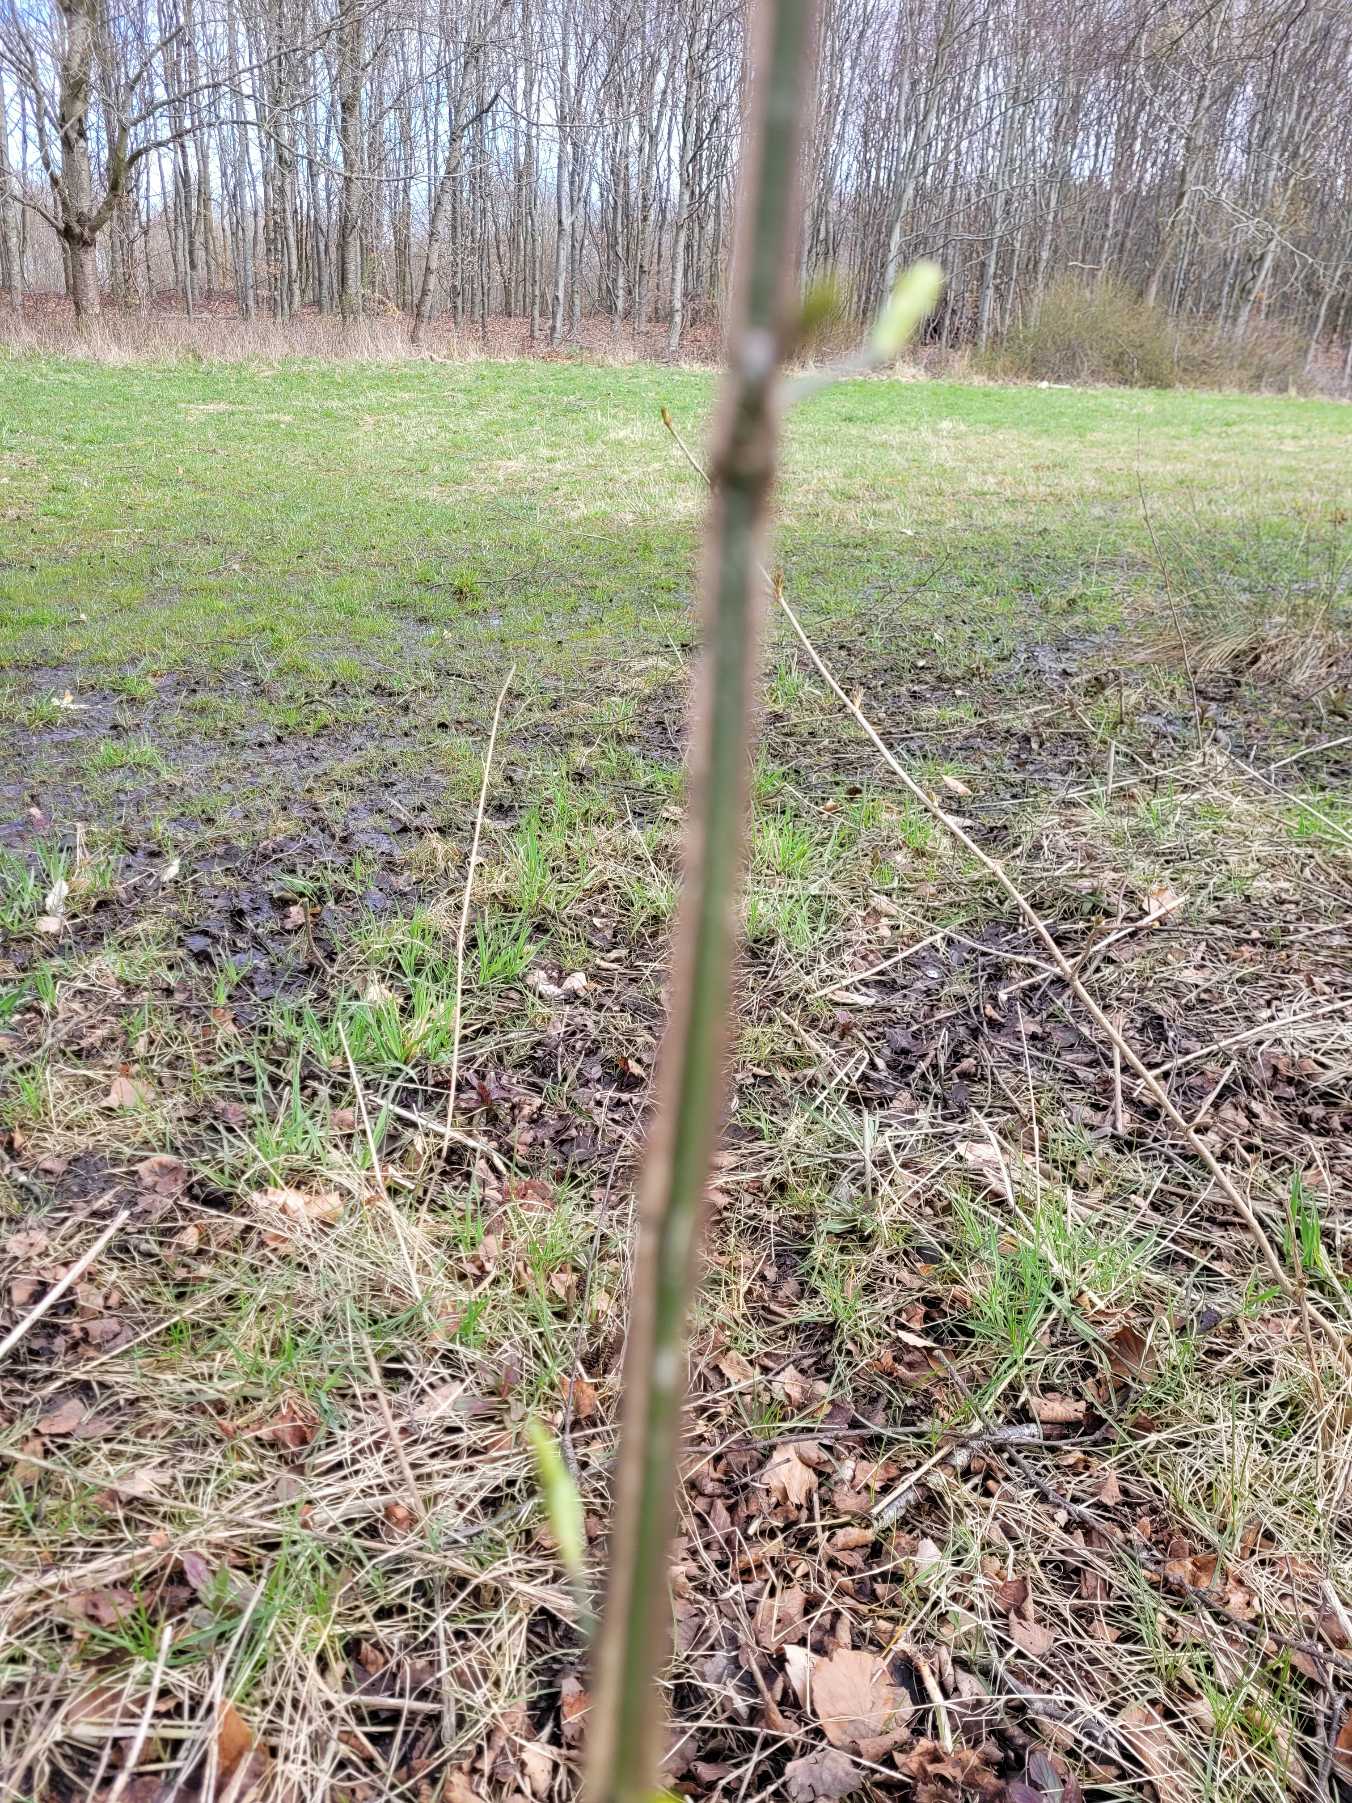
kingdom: Plantae
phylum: Tracheophyta
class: Magnoliopsida
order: Celastrales
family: Celastraceae
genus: Euonymus
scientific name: Euonymus europaeus
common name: Benved
